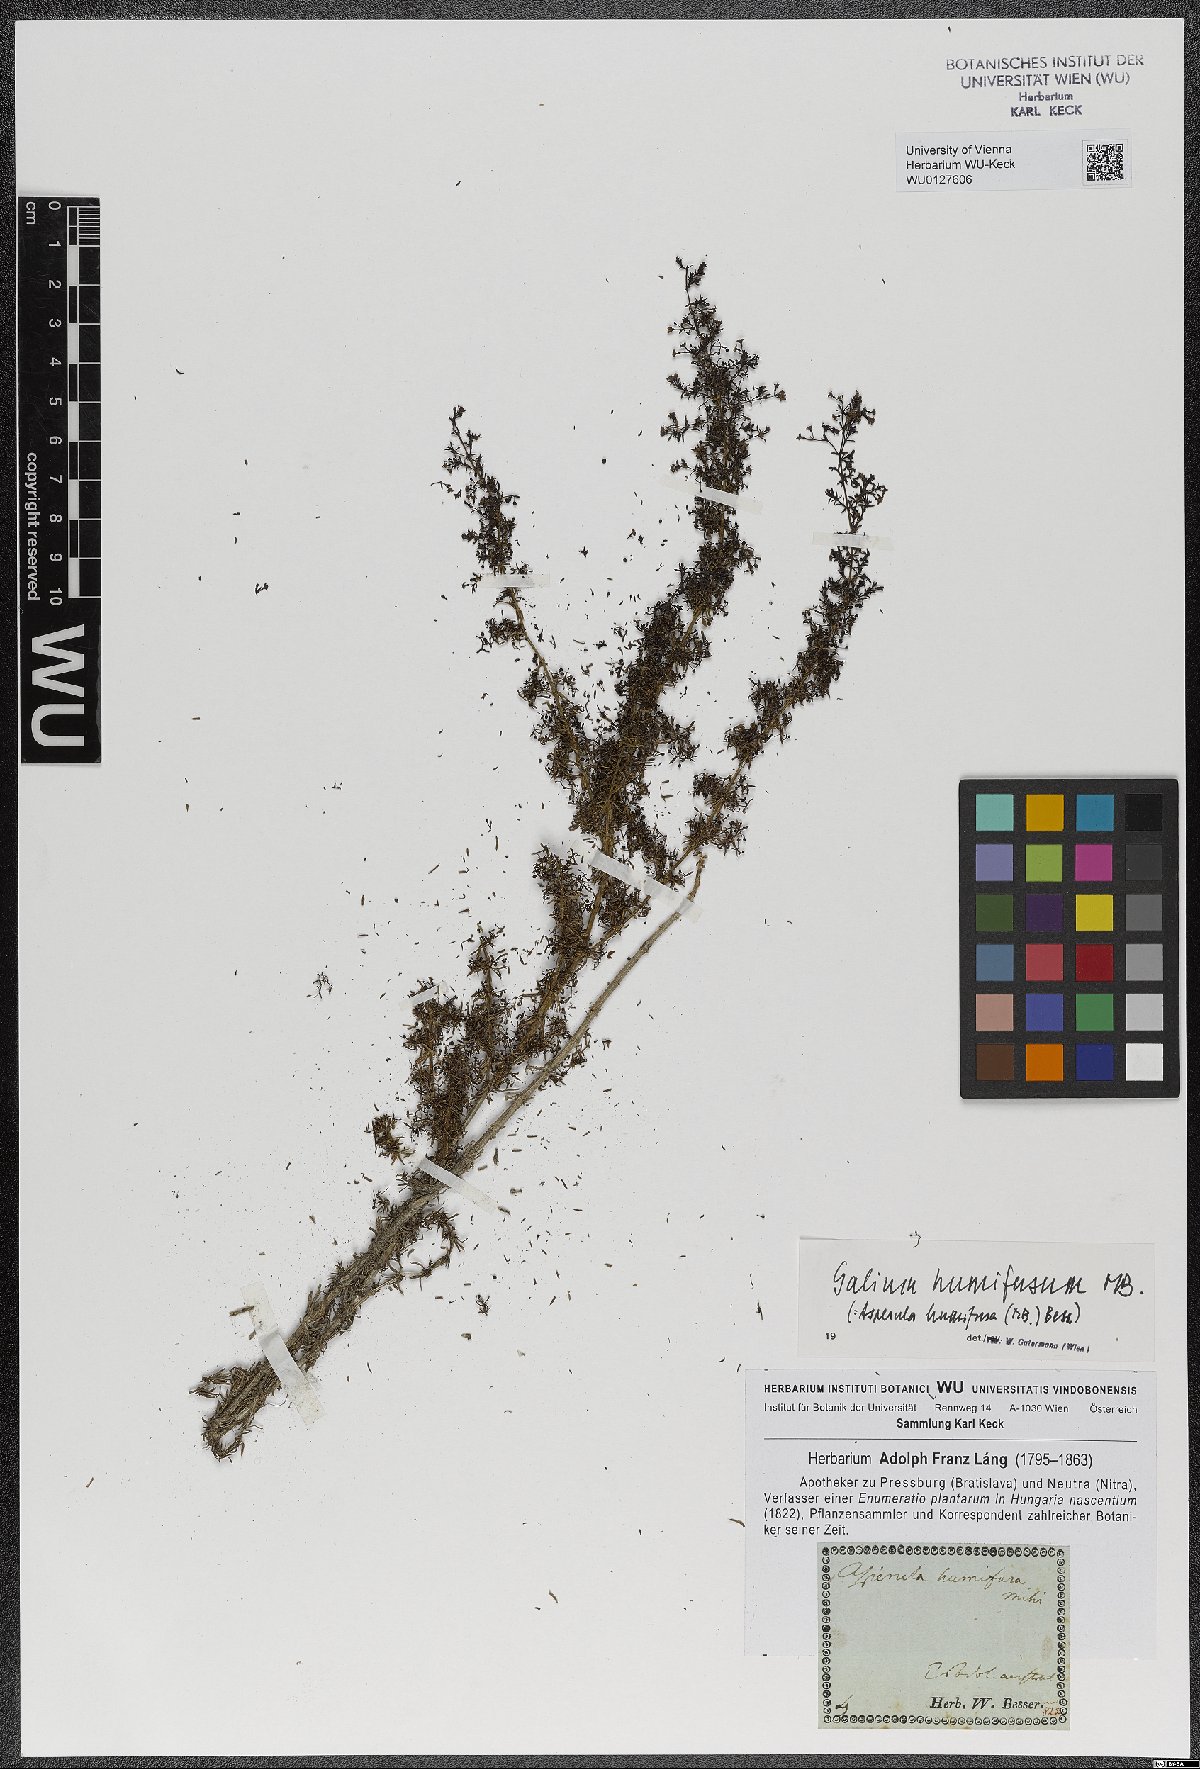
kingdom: Plantae
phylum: Tracheophyta
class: Magnoliopsida
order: Gentianales
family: Rubiaceae
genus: Galium
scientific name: Galium humifusum
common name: Spreading bedstraw
